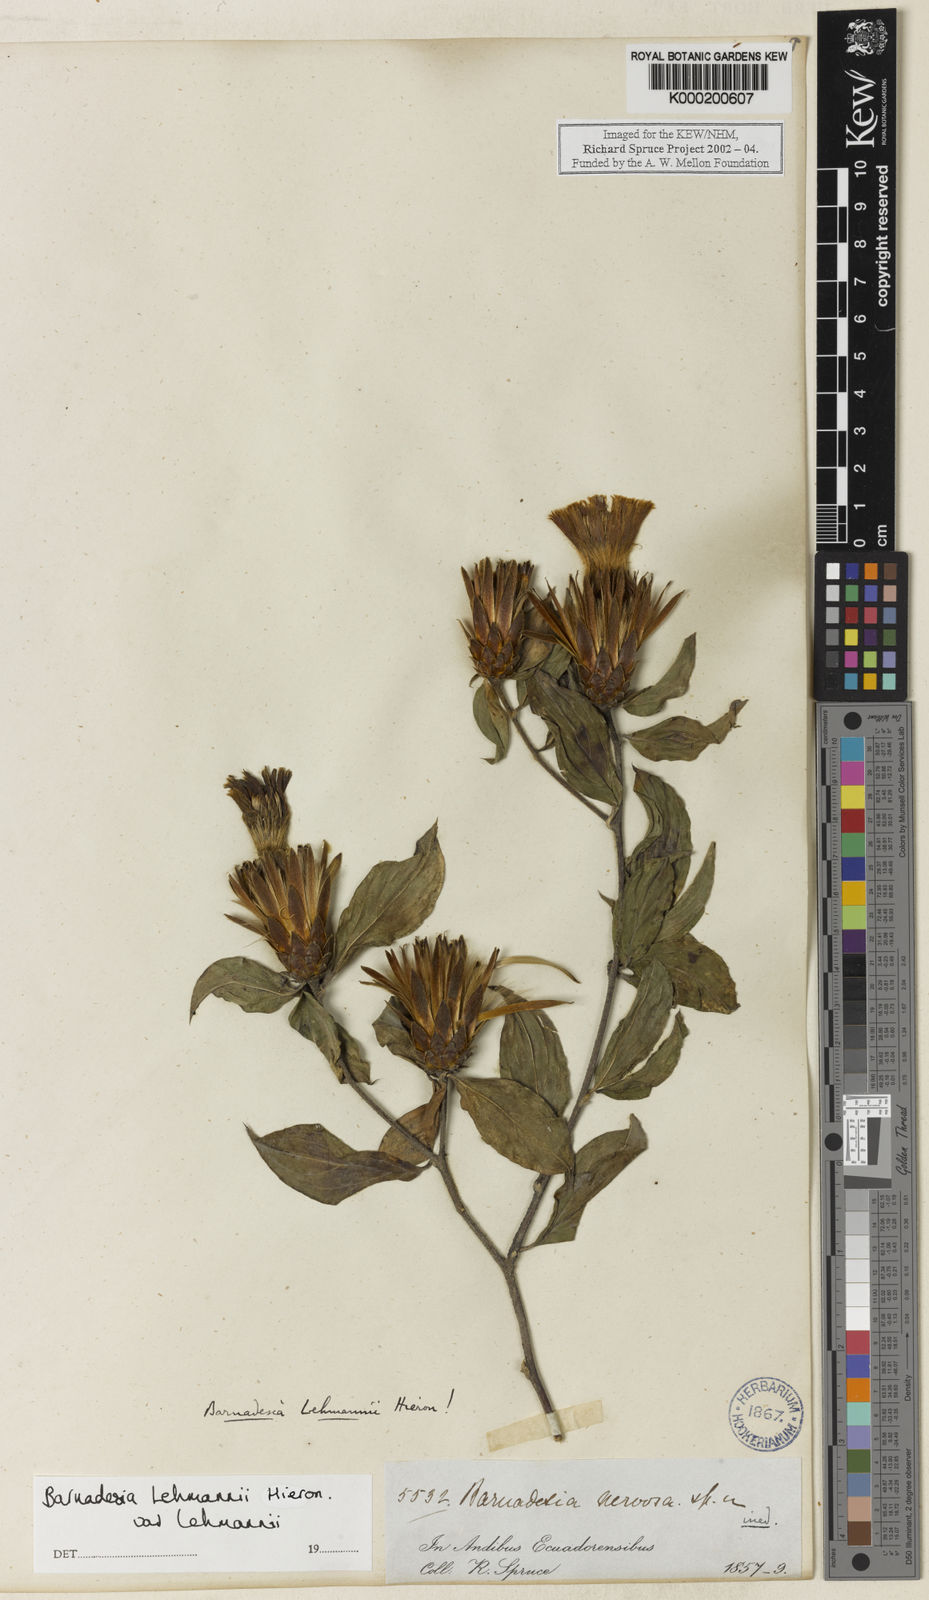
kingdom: Plantae
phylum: Tracheophyta
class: Magnoliopsida
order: Asterales
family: Asteraceae
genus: Barnadesia
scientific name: Barnadesia lehmannii
